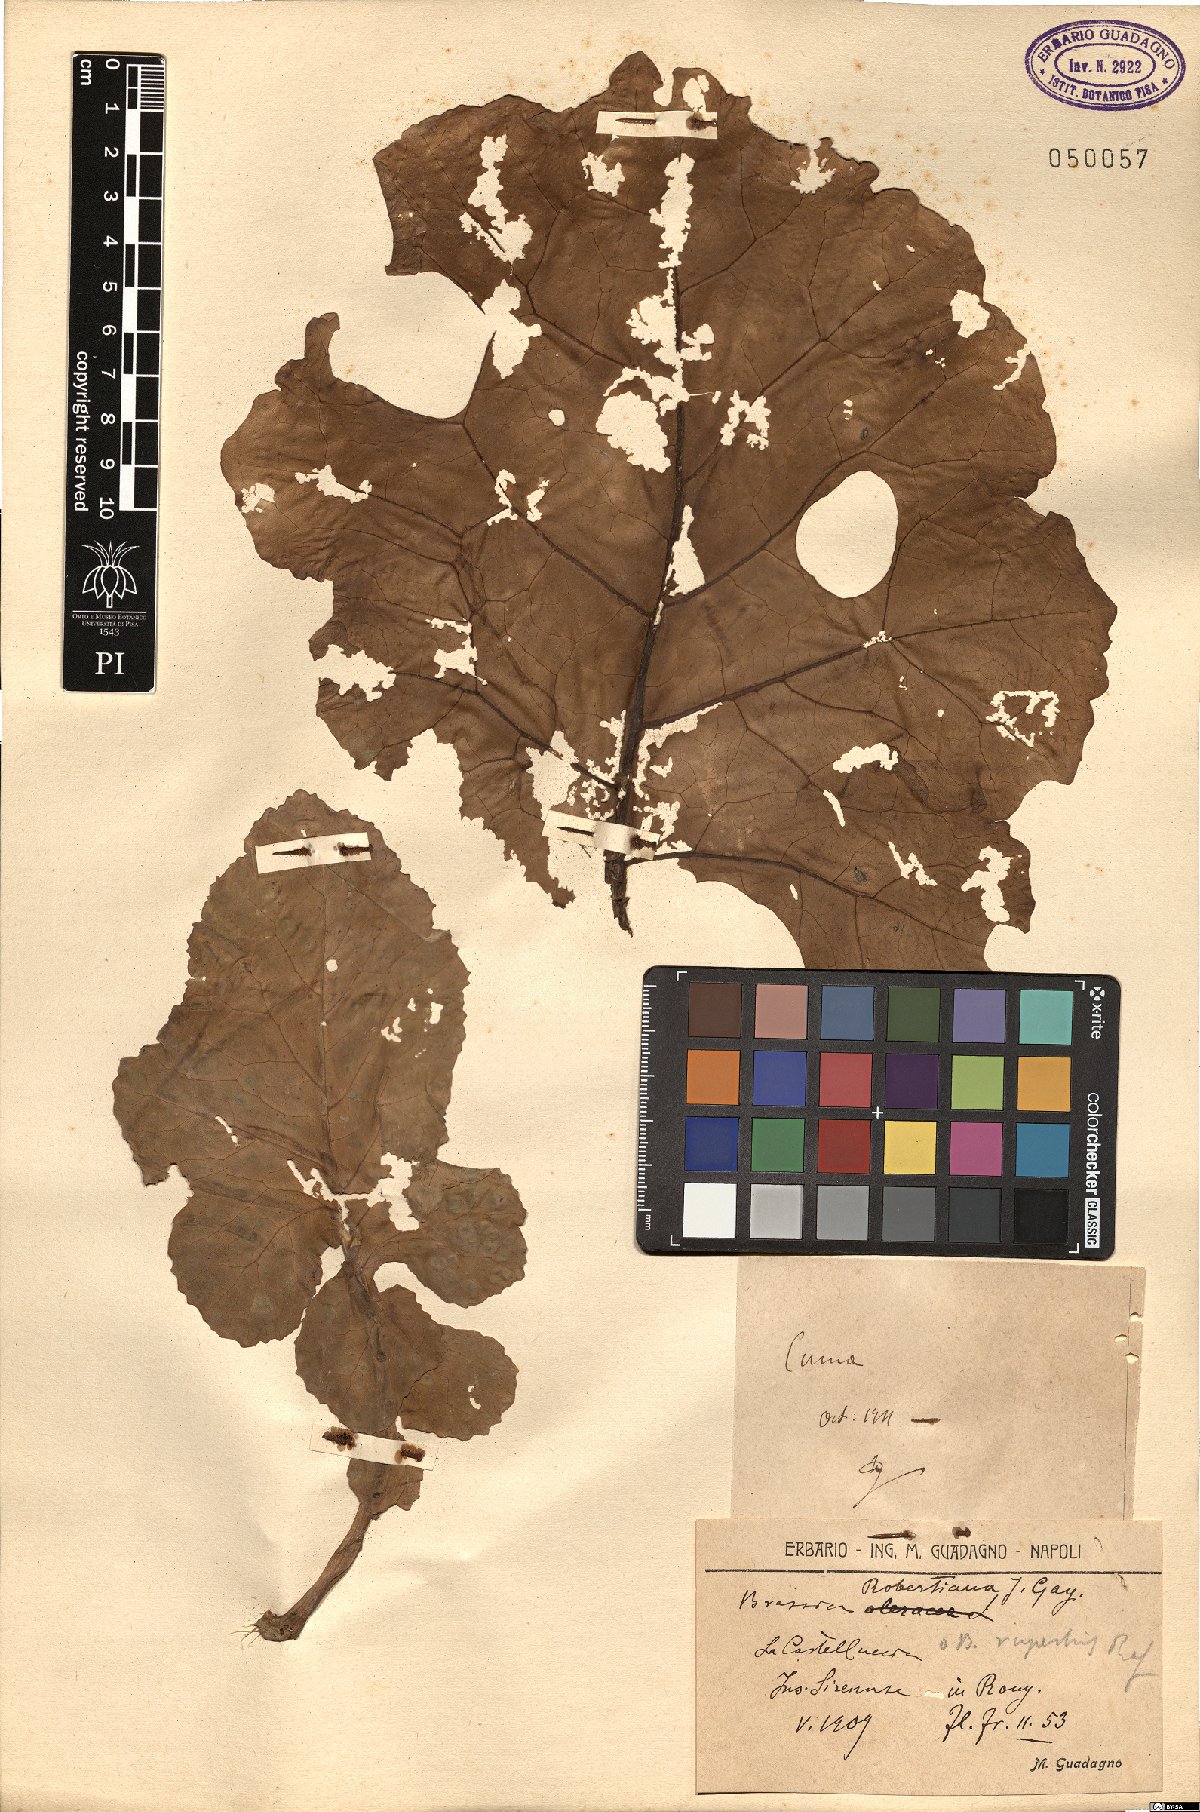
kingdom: Plantae
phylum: Tracheophyta
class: Magnoliopsida
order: Brassicales
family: Brassicaceae
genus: Brassica
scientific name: Brassica montana
